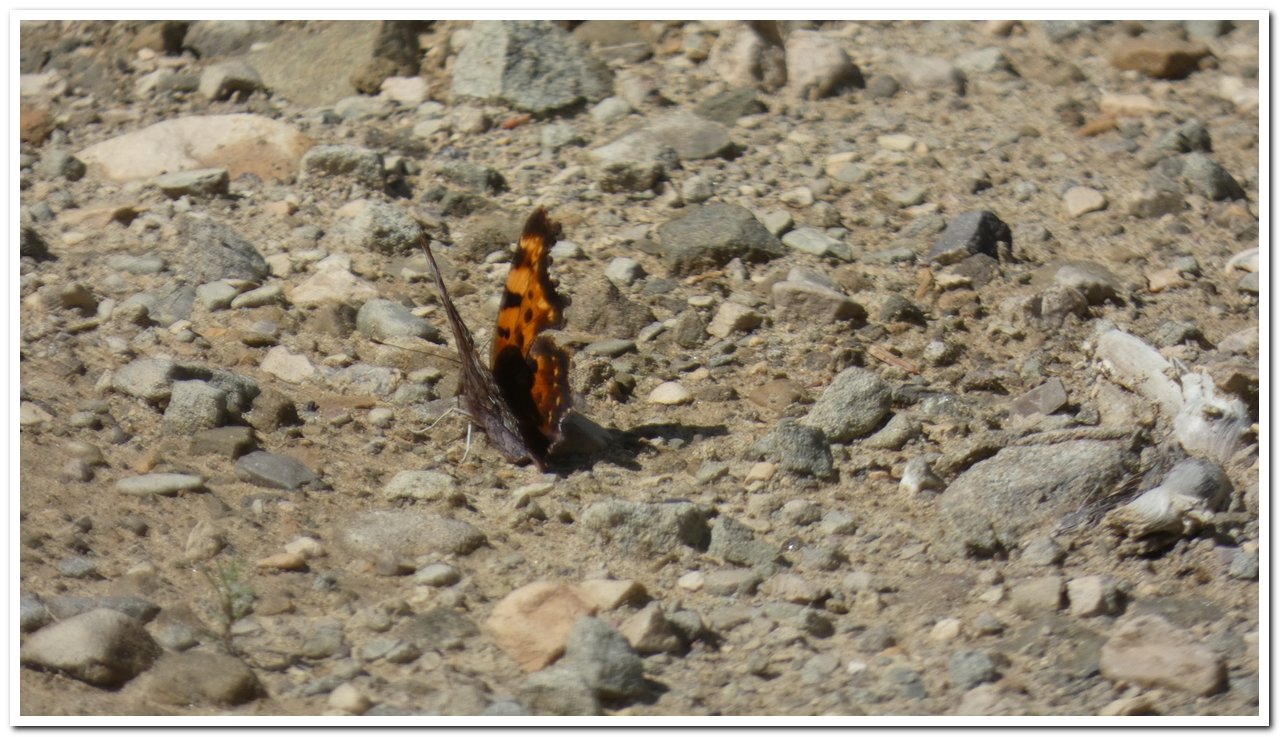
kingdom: Animalia
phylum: Arthropoda
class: Insecta
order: Lepidoptera
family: Nymphalidae
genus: Polygonia
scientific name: Polygonia faunus
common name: Green Comma
